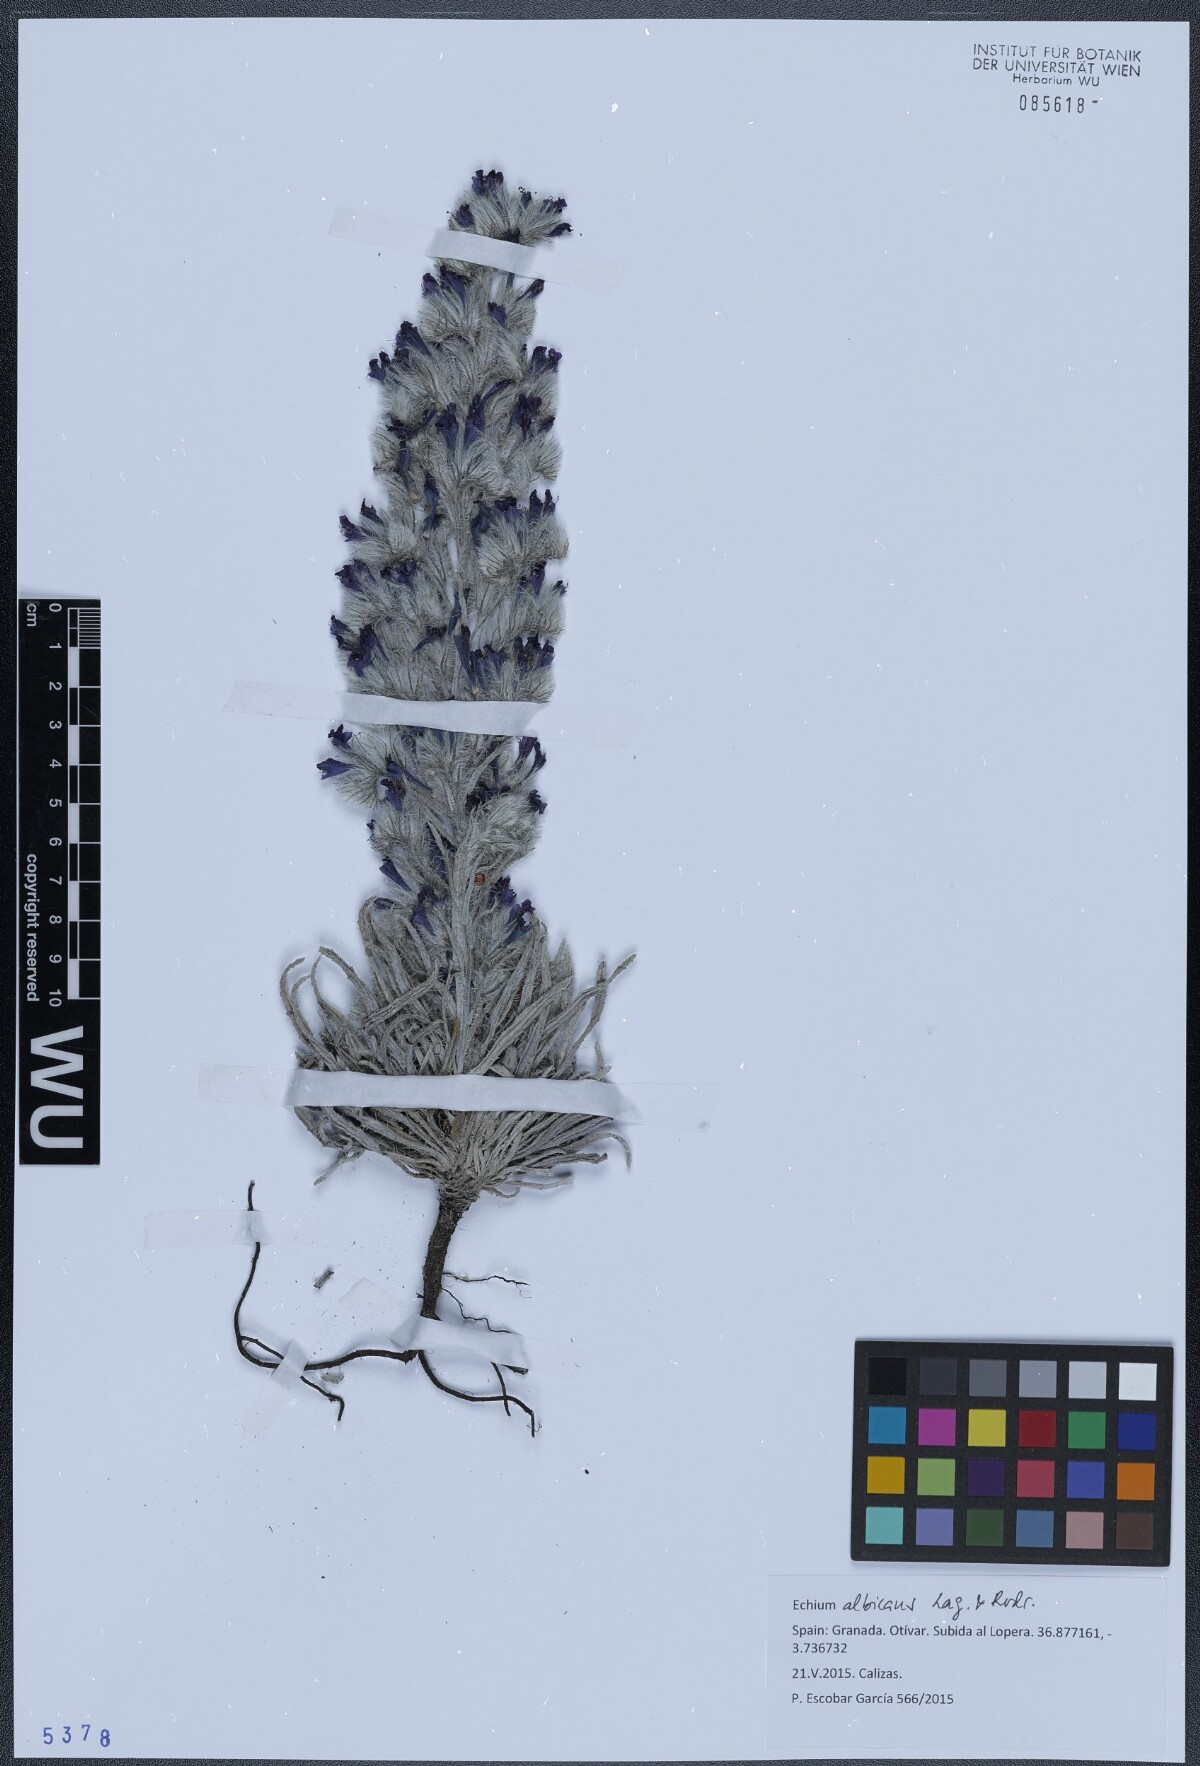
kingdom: Plantae
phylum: Tracheophyta
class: Magnoliopsida
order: Boraginales
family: Boraginaceae
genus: Echium
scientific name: Echium albicans
